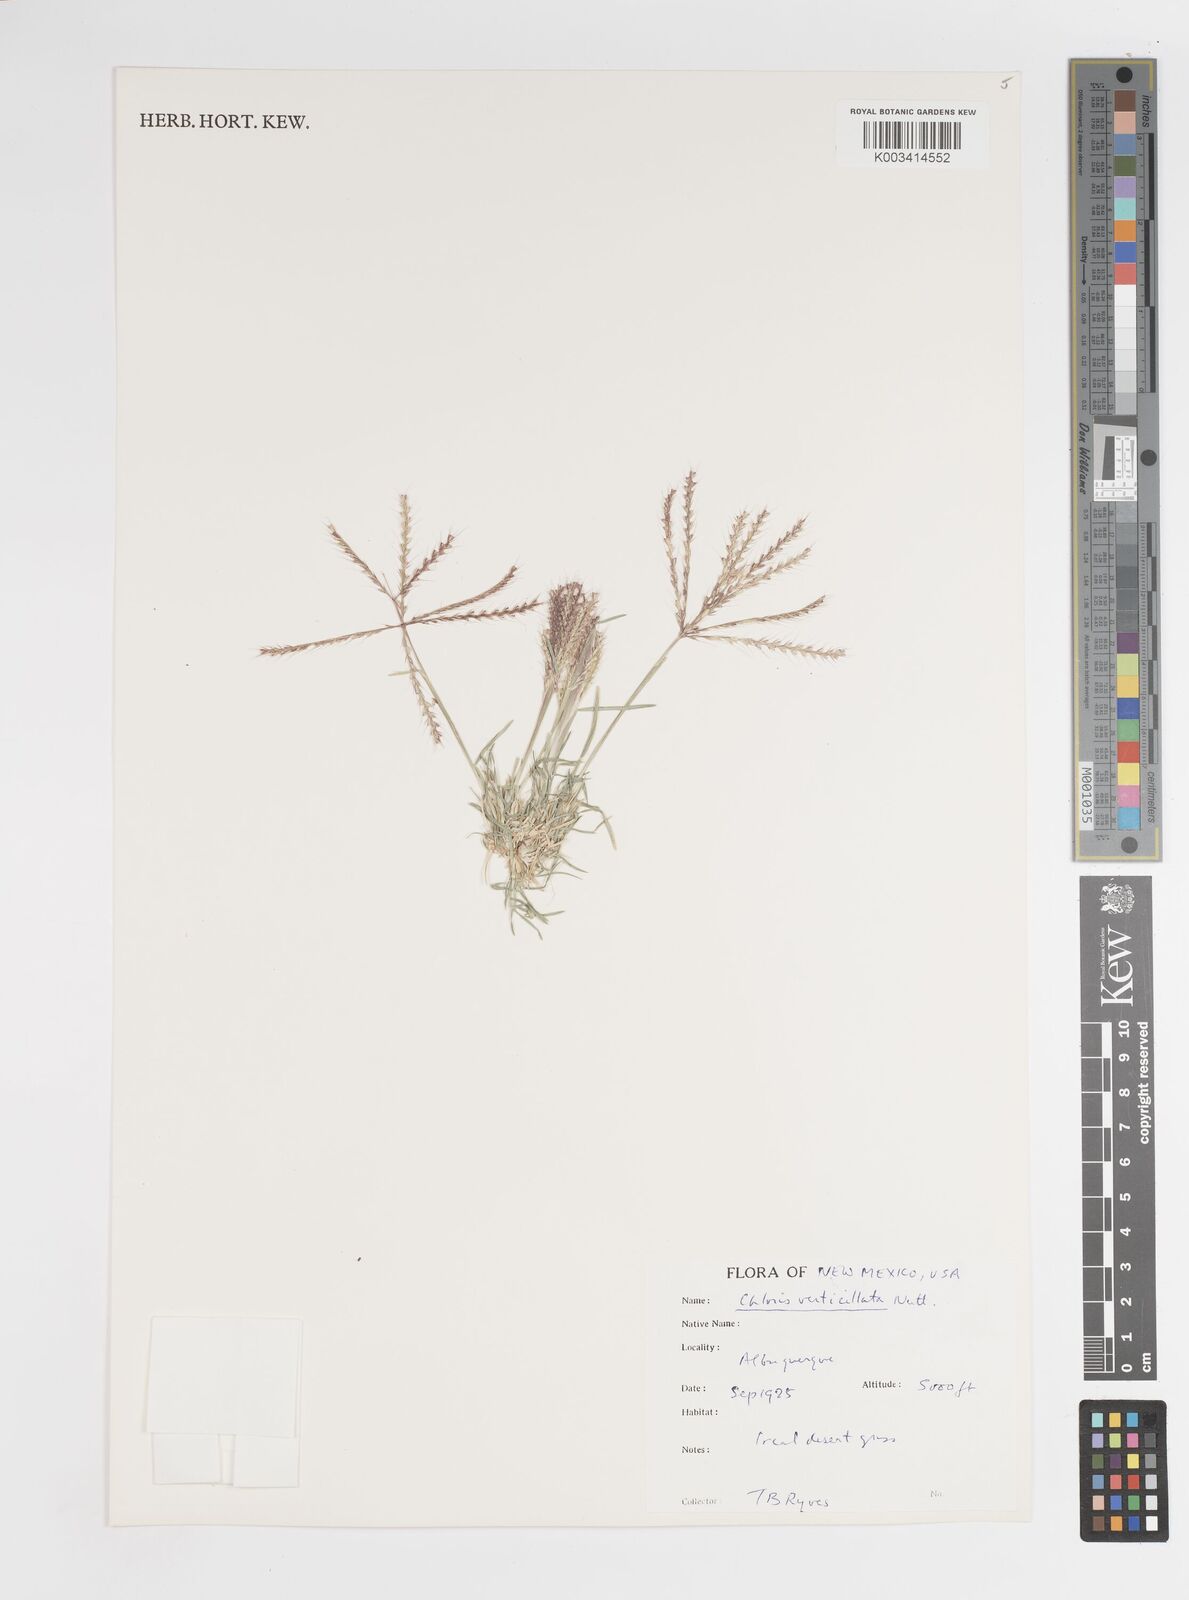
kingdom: Plantae
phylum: Tracheophyta
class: Liliopsida
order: Poales
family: Poaceae
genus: Chloris
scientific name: Chloris verticillata
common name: Tumble windmill grass
